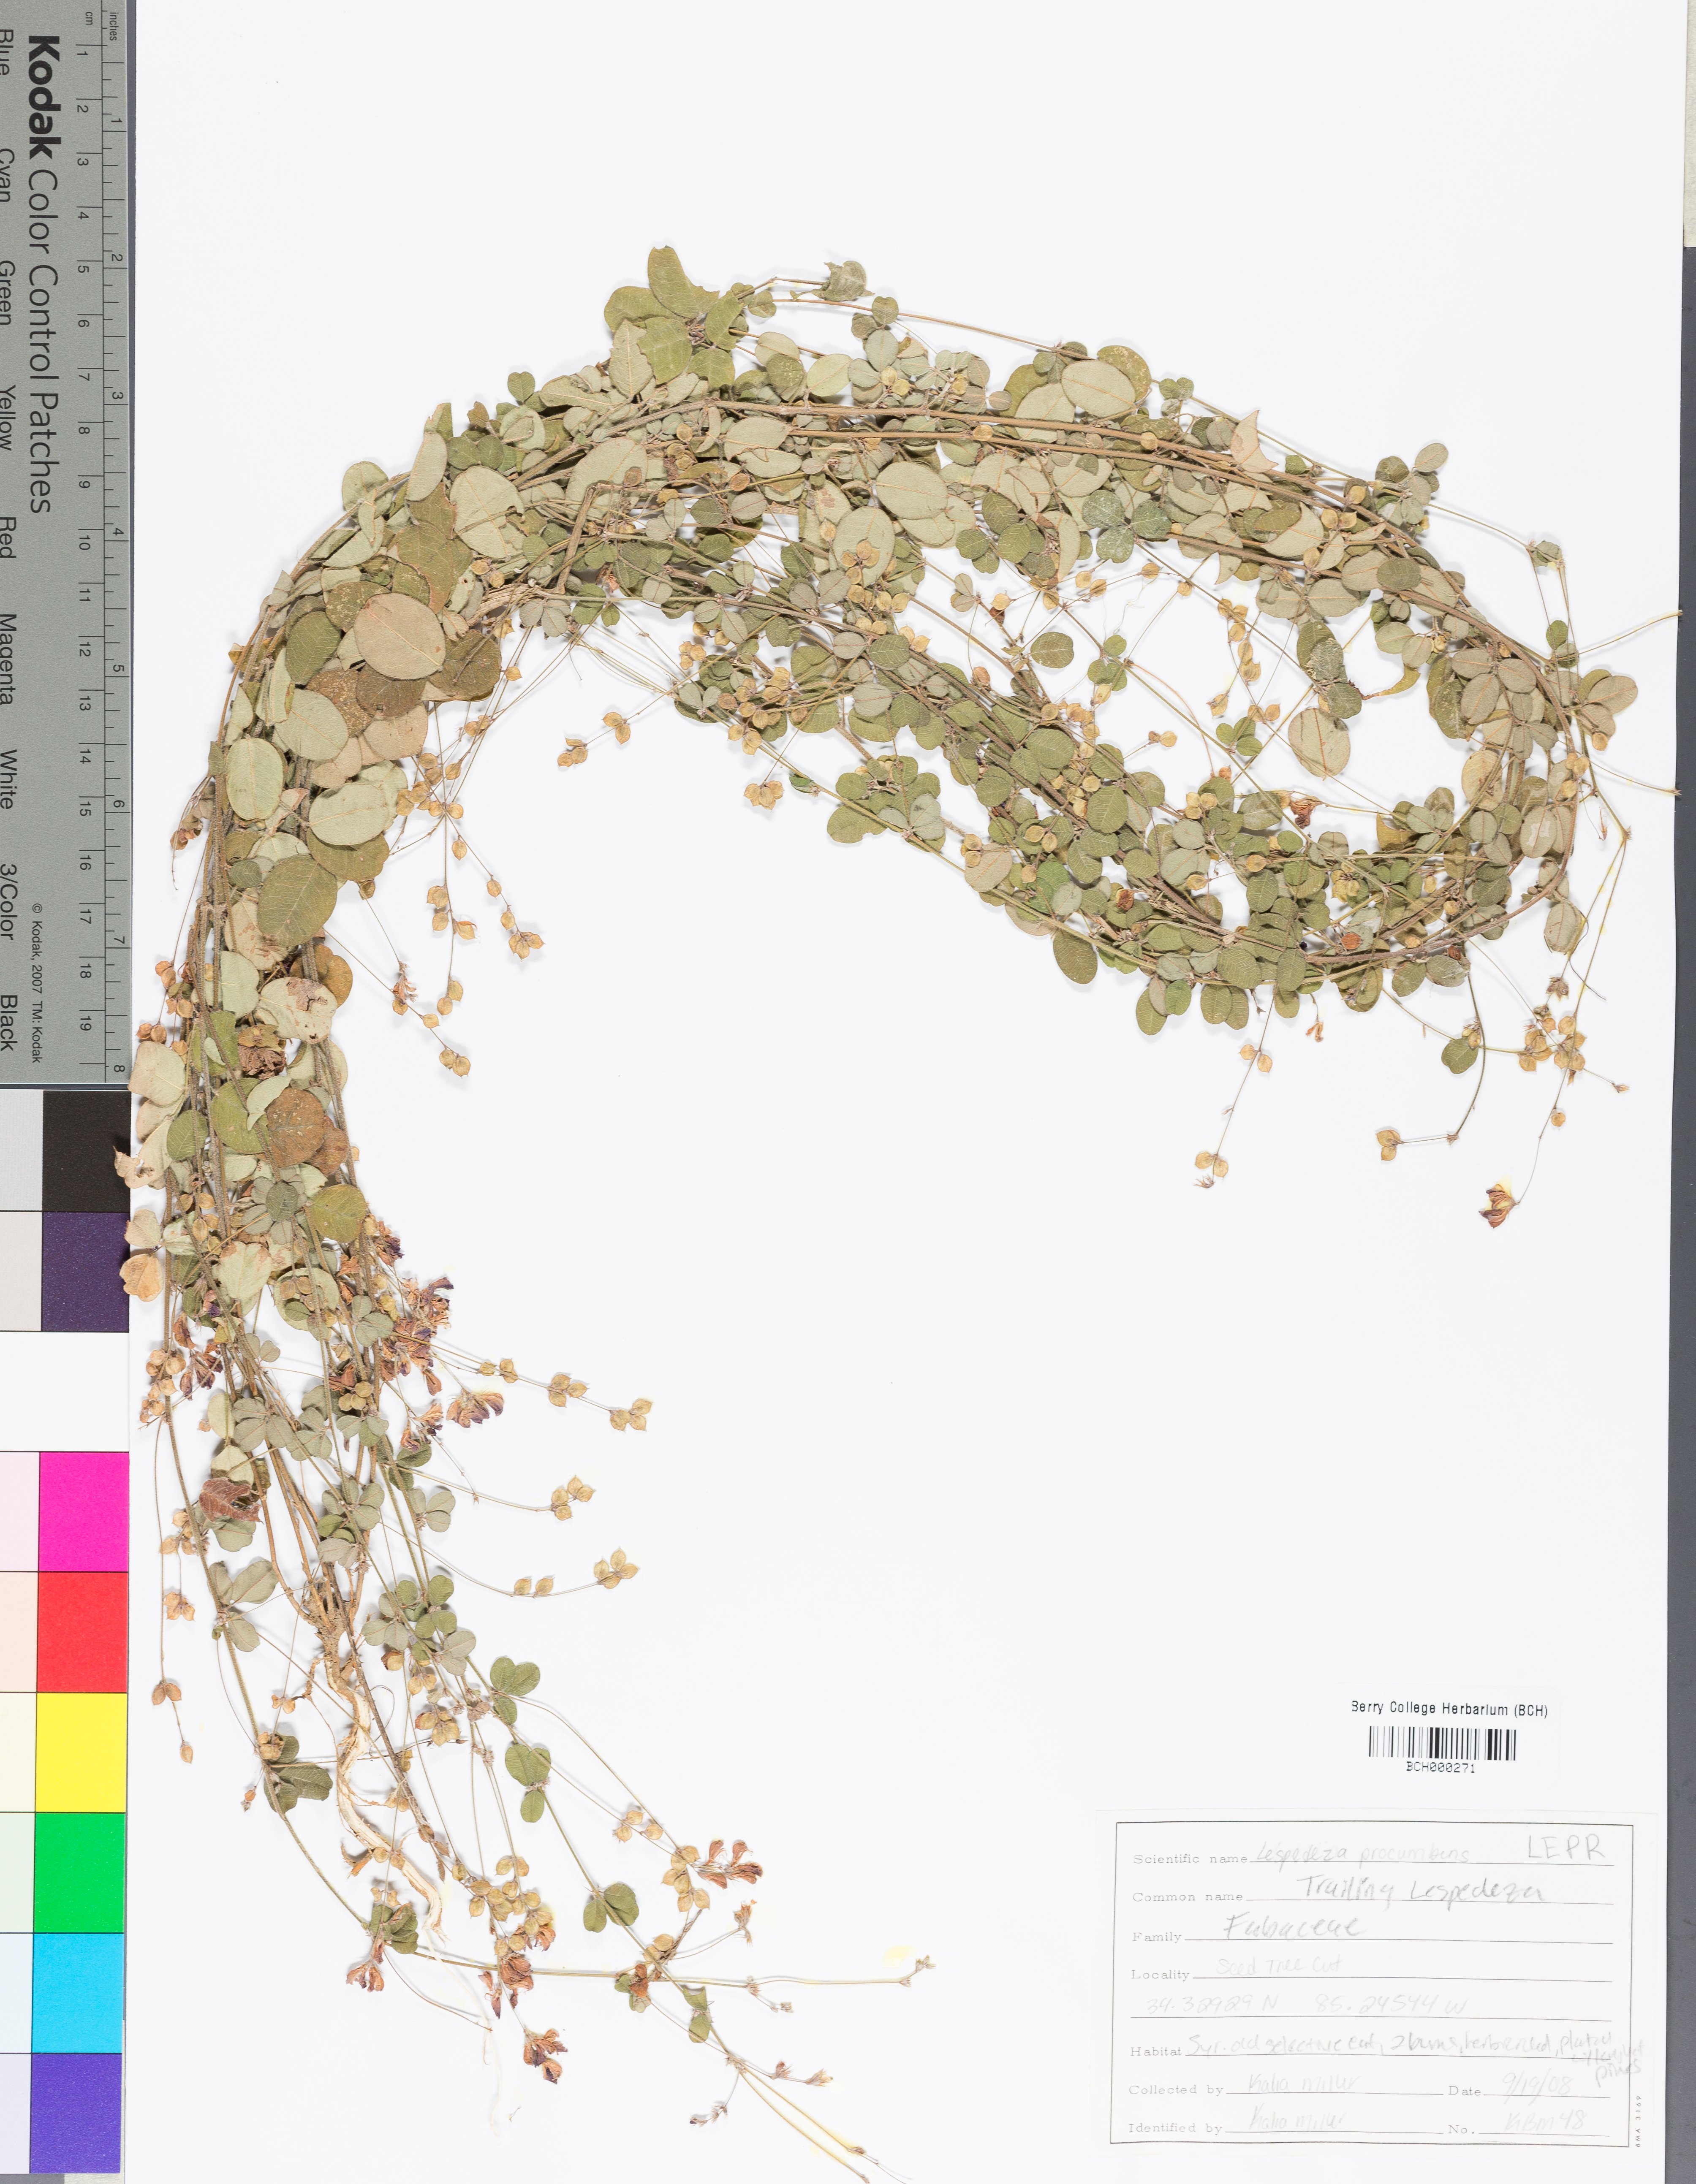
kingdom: Plantae
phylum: Tracheophyta
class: Magnoliopsida
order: Fabales
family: Fabaceae
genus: Lespedeza
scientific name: Lespedeza procumbens
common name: Downy trailing bush-clover
